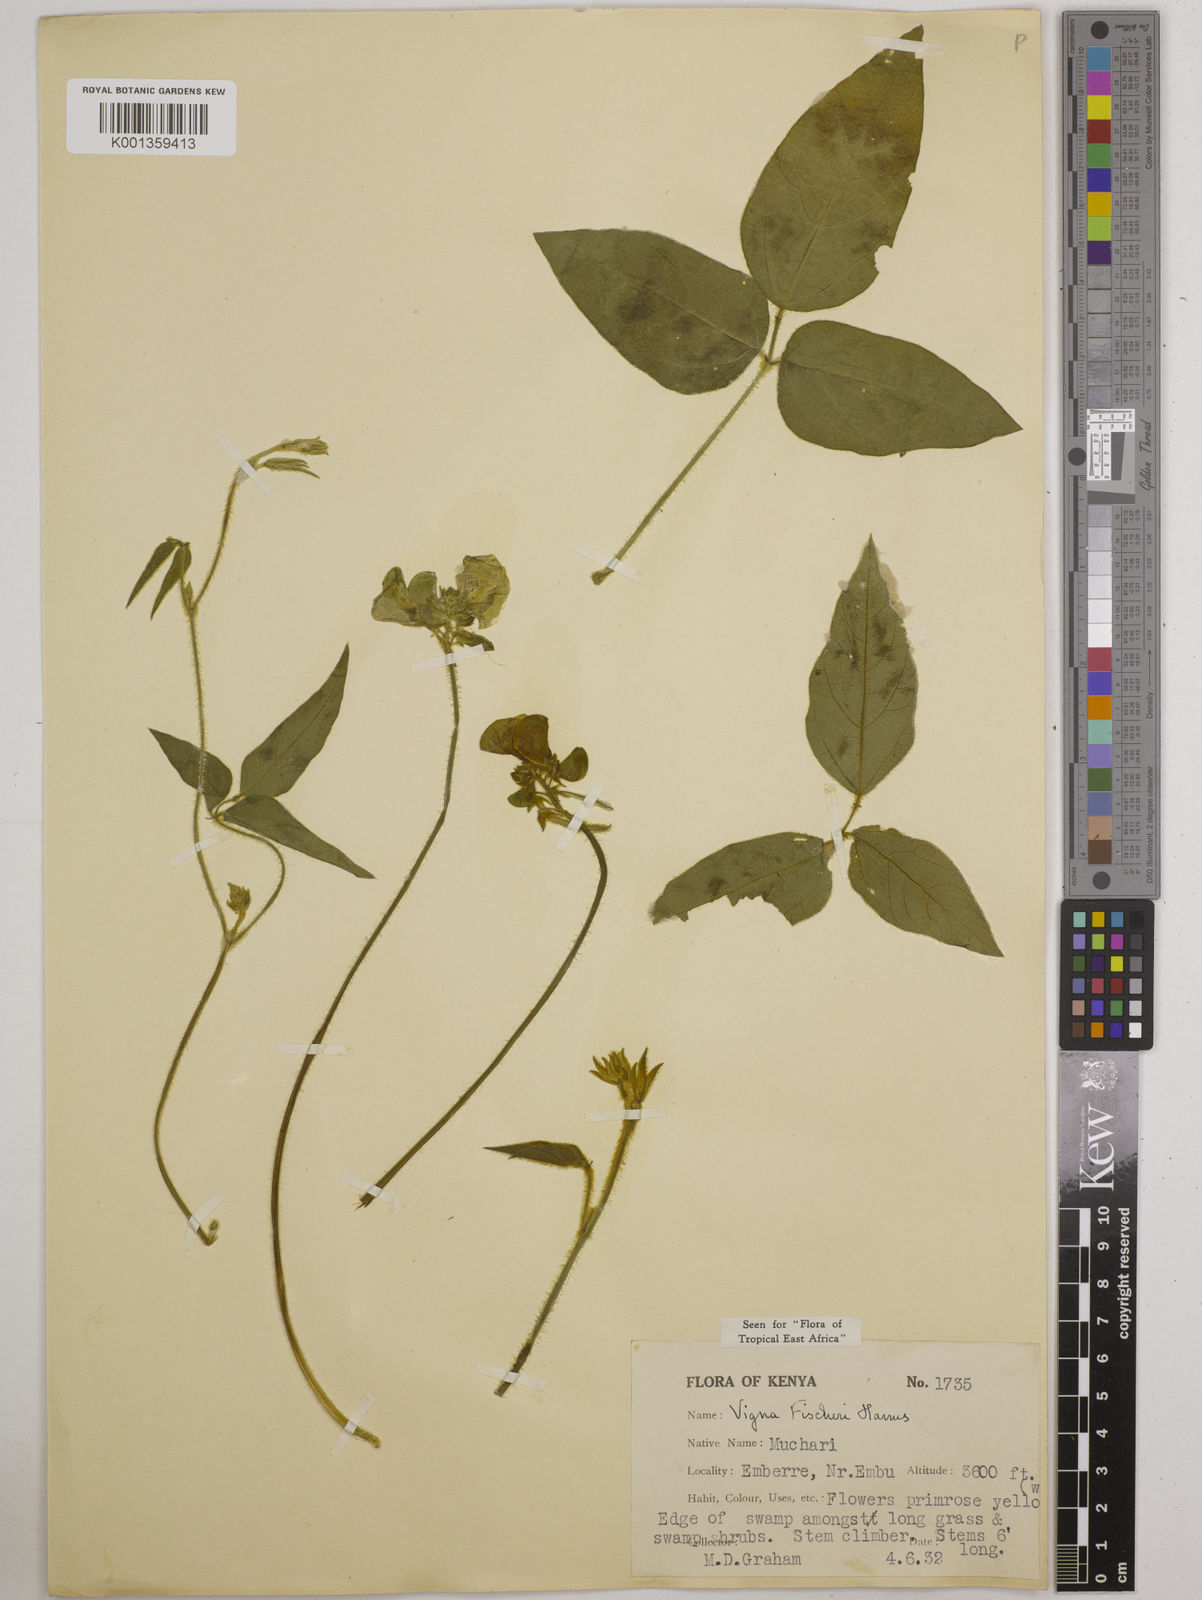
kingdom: Plantae
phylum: Tracheophyta
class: Magnoliopsida
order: Fabales
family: Fabaceae
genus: Vigna
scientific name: Vigna fischeri
